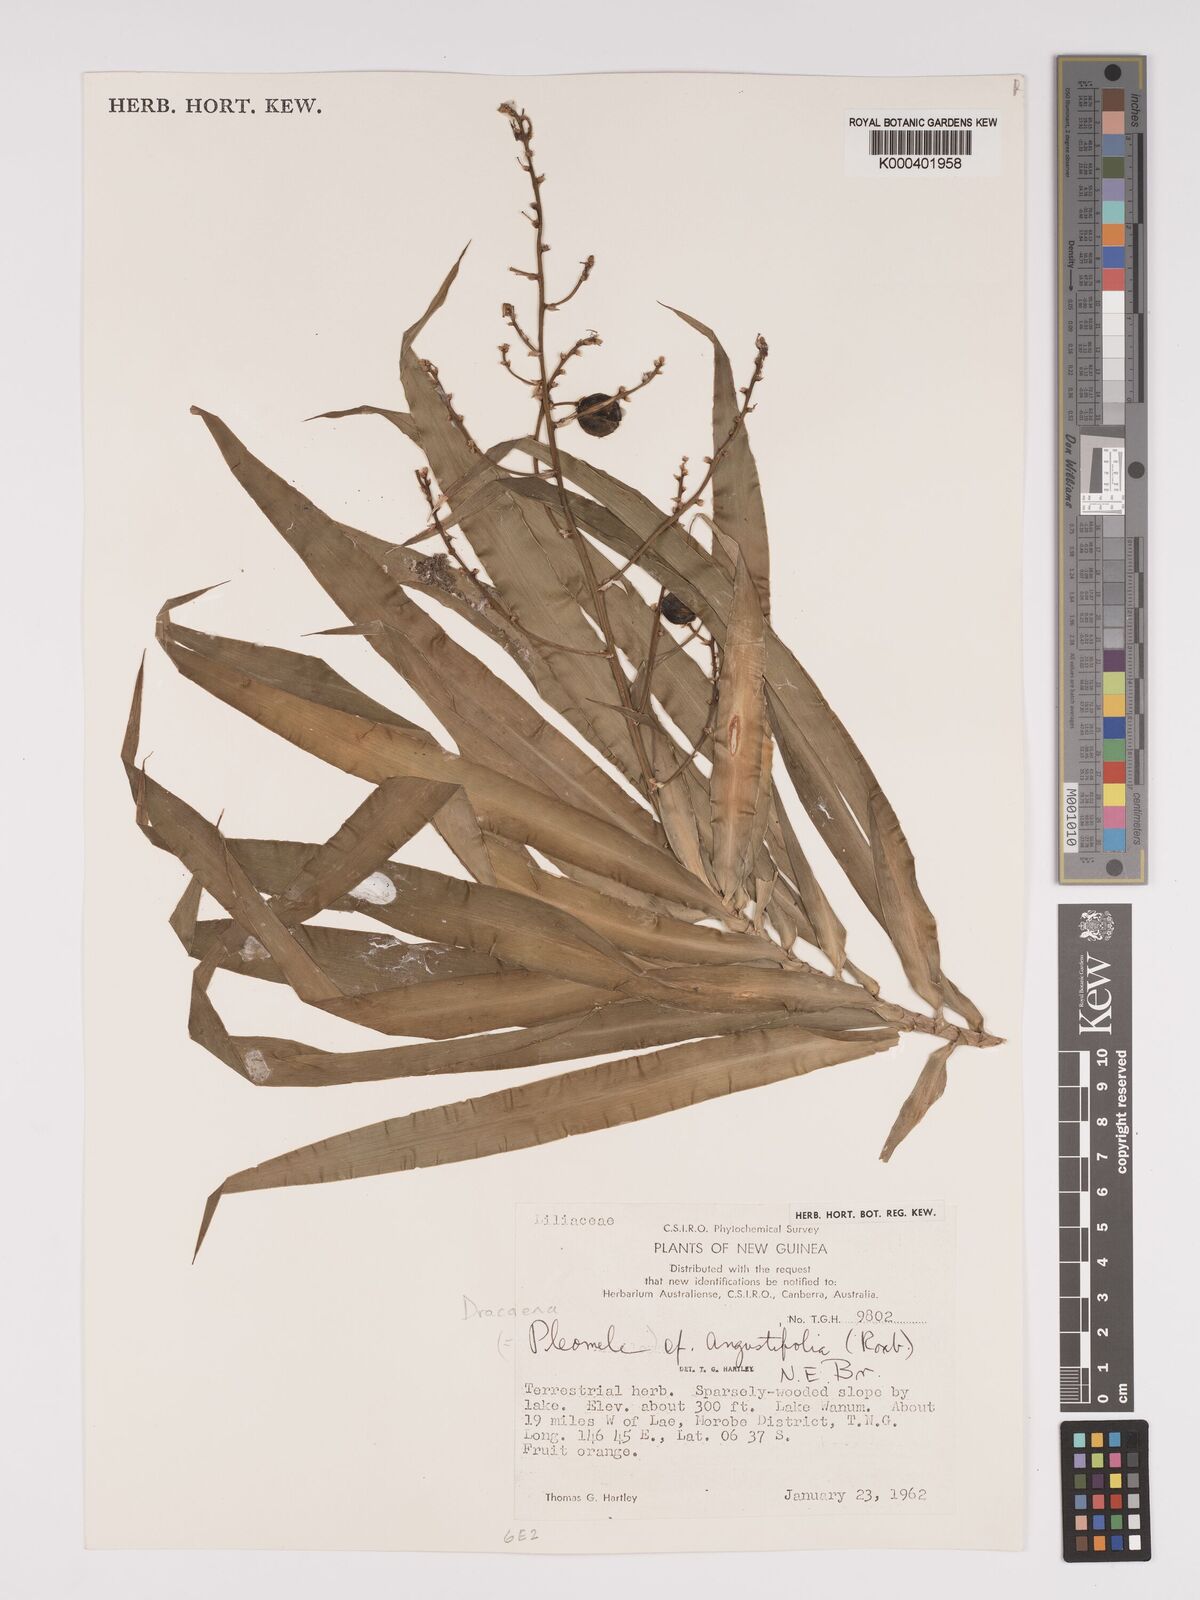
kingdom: Plantae
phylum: Tracheophyta
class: Liliopsida
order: Asparagales
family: Asparagaceae
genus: Dracaena
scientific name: Dracaena angustifolia
